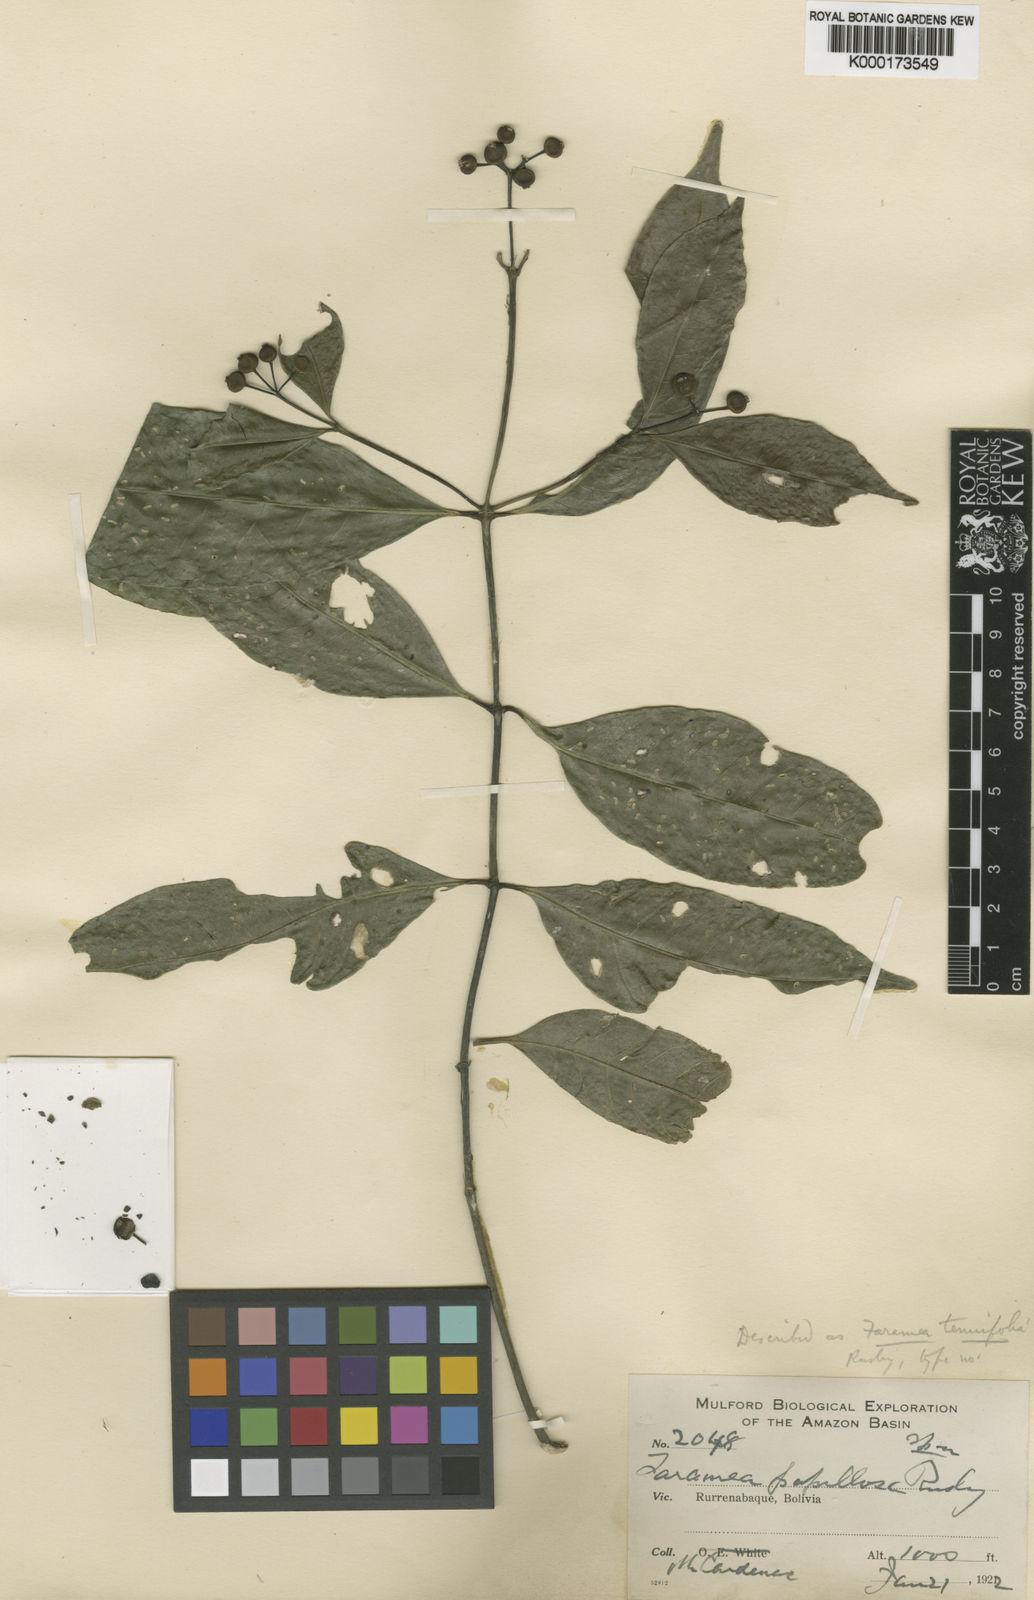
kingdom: Plantae
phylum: Tracheophyta
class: Magnoliopsida
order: Gentianales
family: Rubiaceae
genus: Faramea
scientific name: Faramea occidentalis
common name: False coffee
